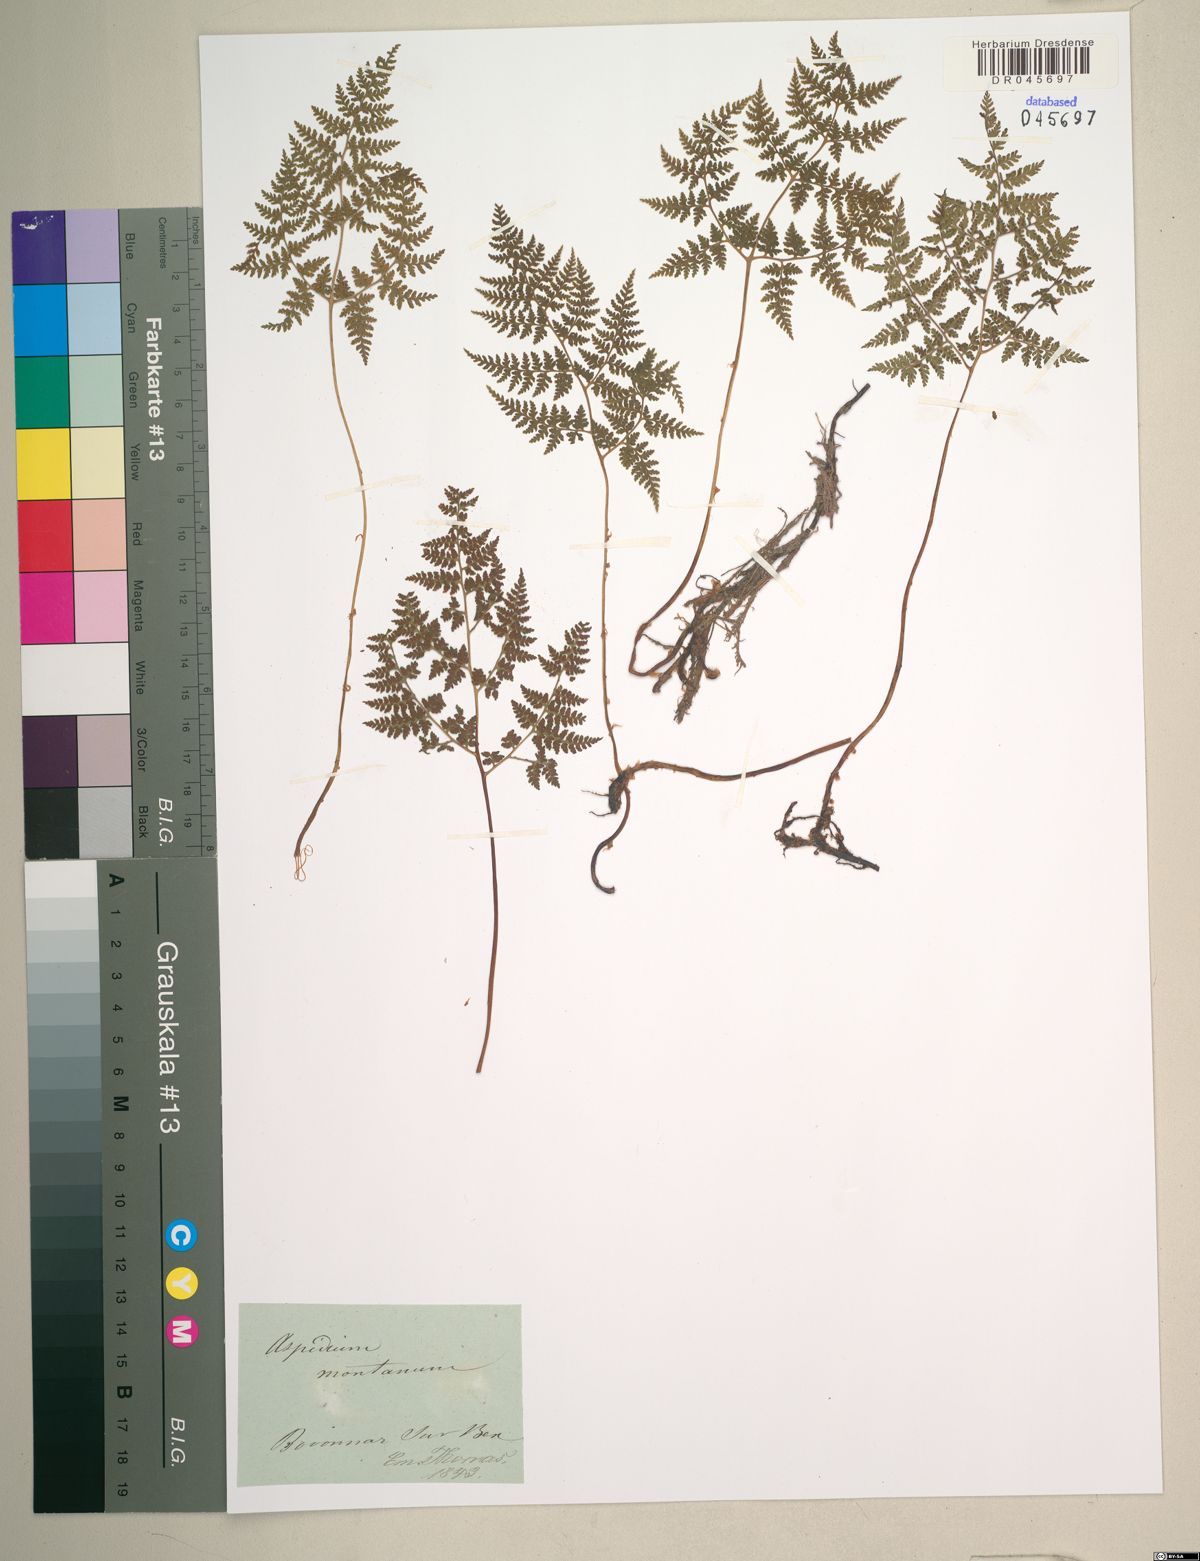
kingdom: Plantae
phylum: Tracheophyta
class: Polypodiopsida
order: Polypodiales
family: Cystopteridaceae
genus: Cystopteris
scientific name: Cystopteris montana
